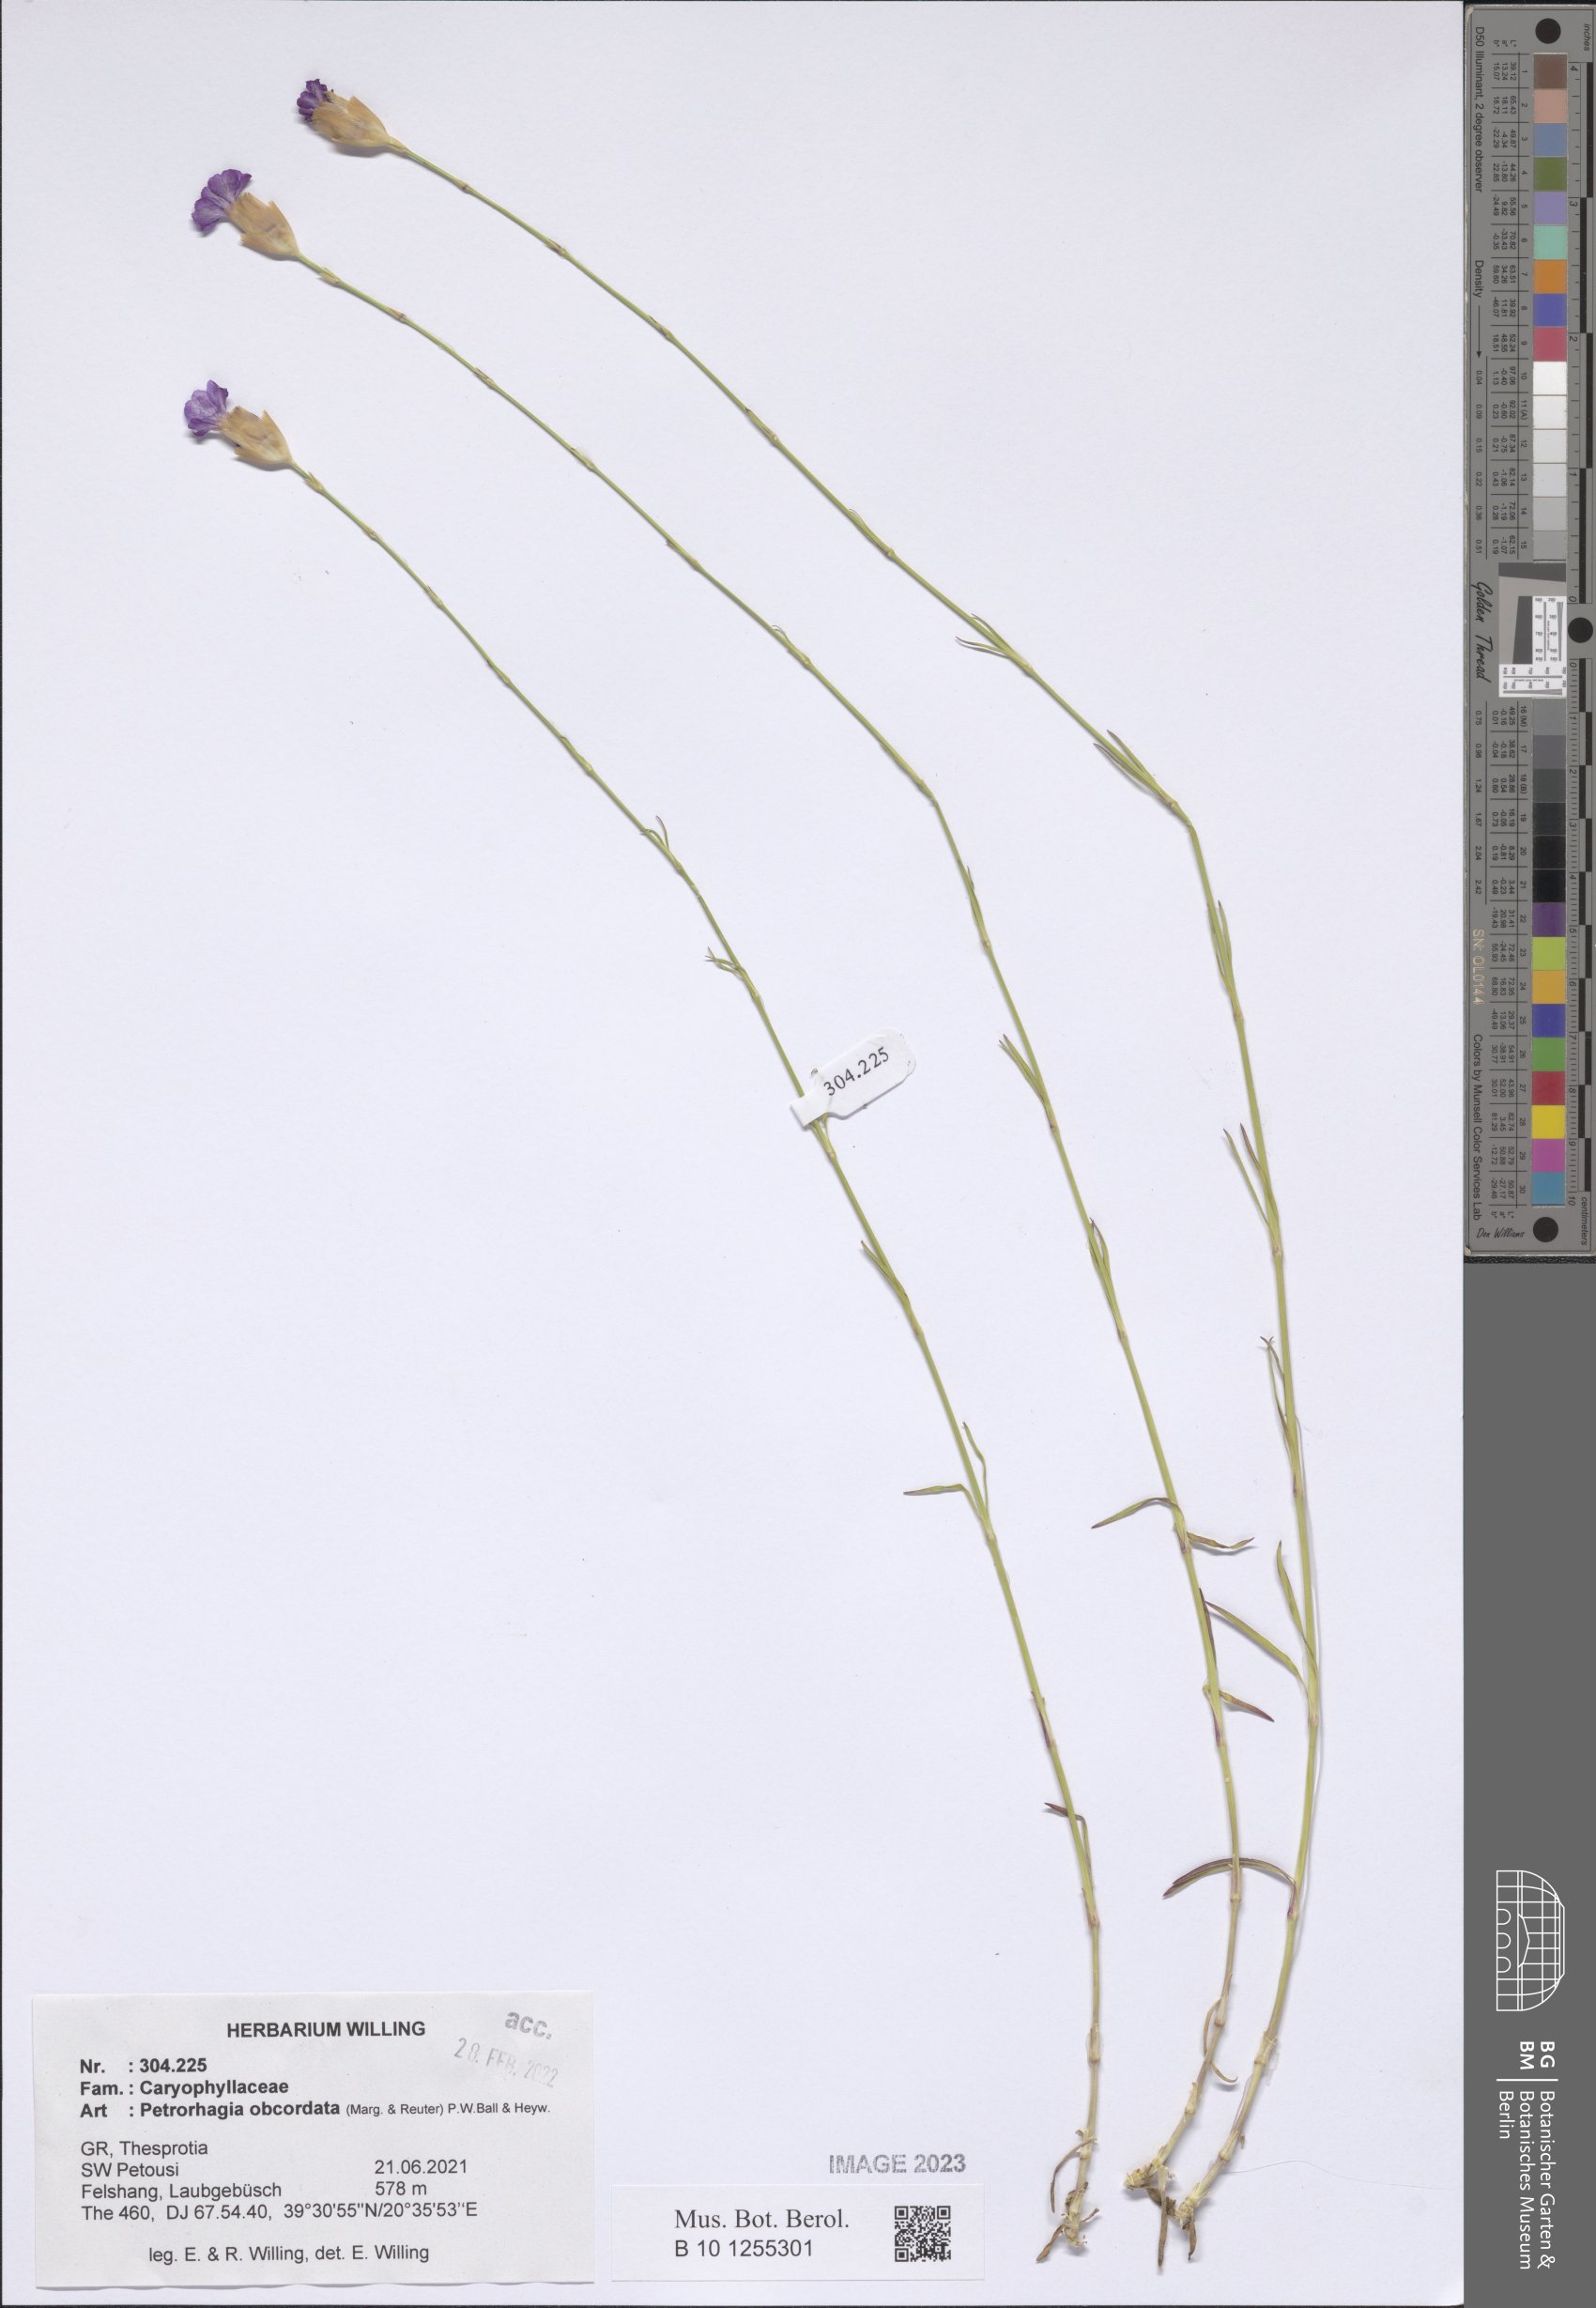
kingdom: Plantae
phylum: Tracheophyta
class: Magnoliopsida
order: Caryophyllales
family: Caryophyllaceae
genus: Petrorhagia
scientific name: Petrorhagia obcordata
